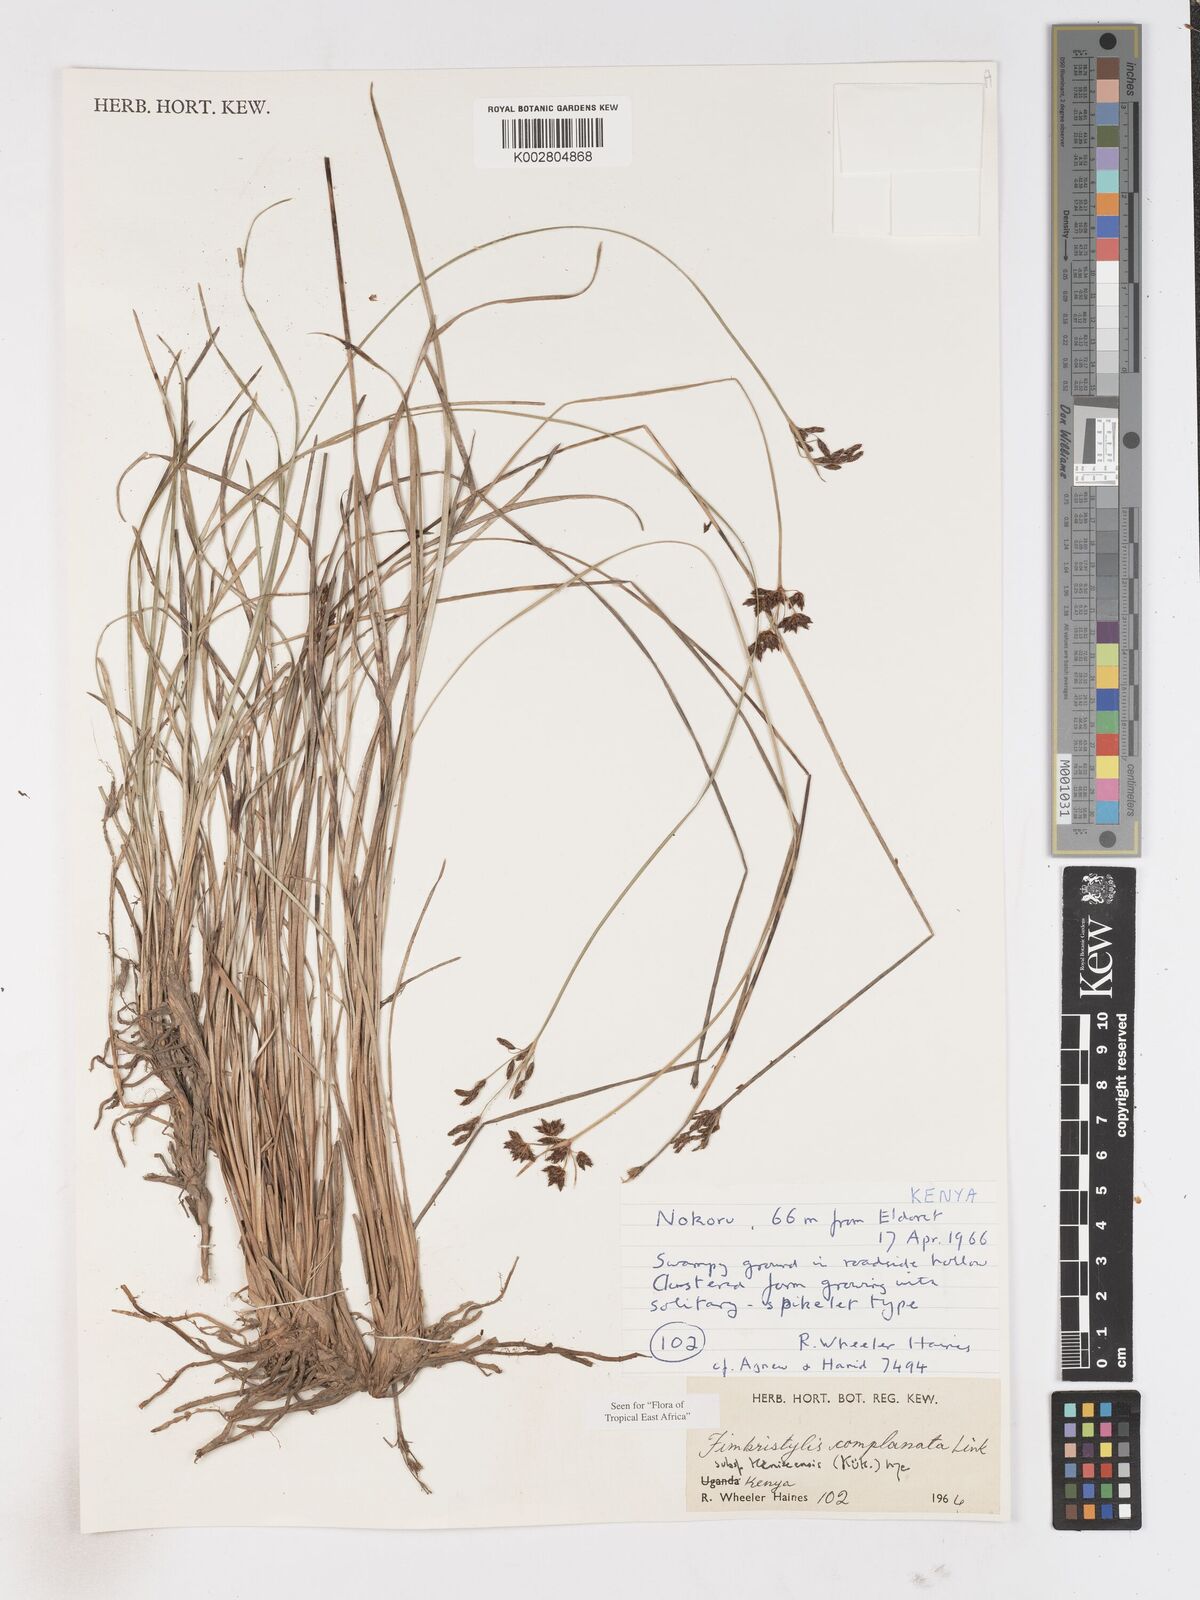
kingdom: Plantae
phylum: Tracheophyta
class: Liliopsida
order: Poales
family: Cyperaceae
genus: Fimbristylis
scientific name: Fimbristylis complanata
